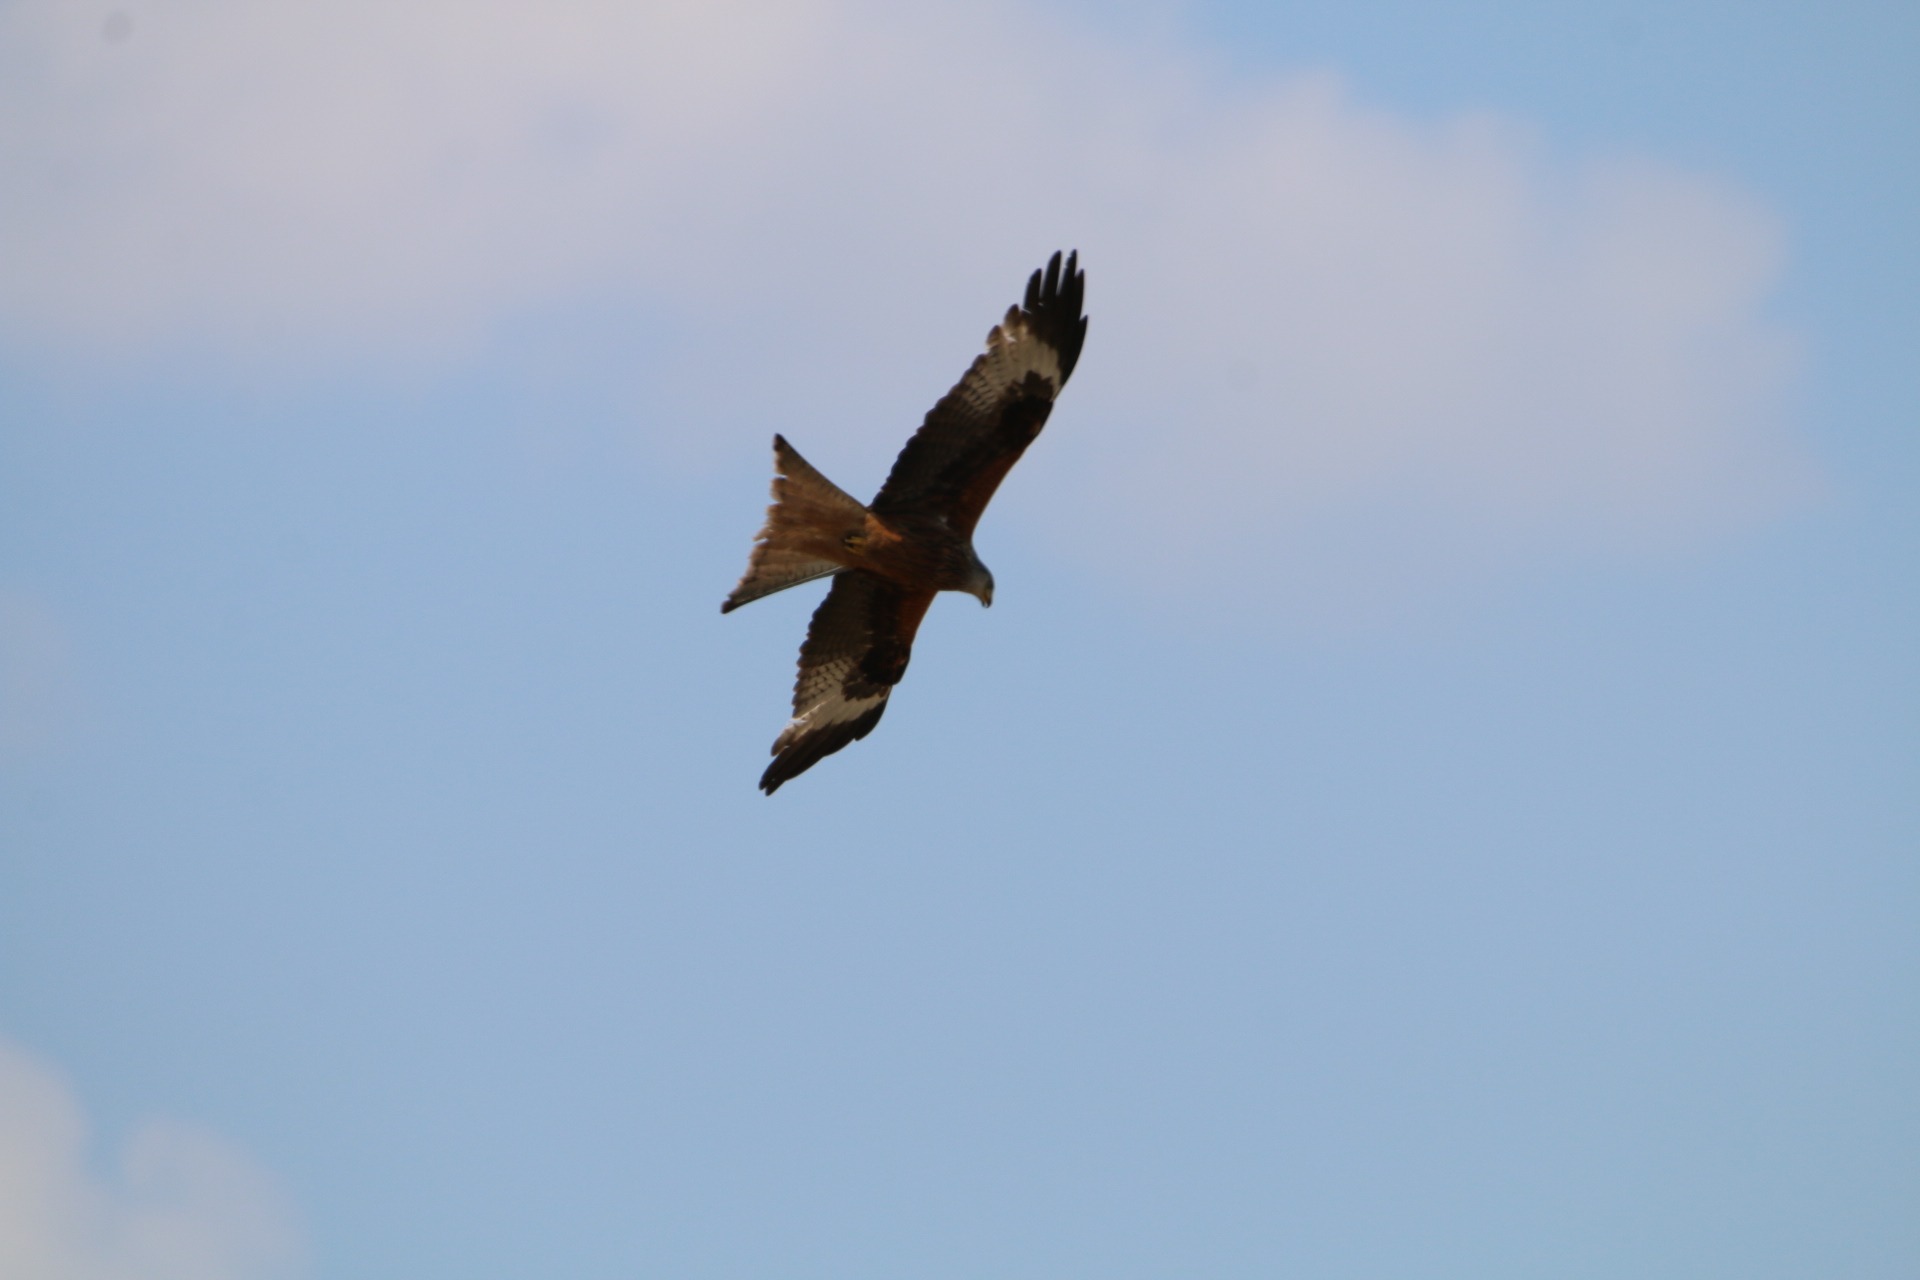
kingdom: Animalia
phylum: Chordata
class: Aves
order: Accipitriformes
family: Accipitridae
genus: Milvus
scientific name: Milvus milvus
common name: Rød glente
